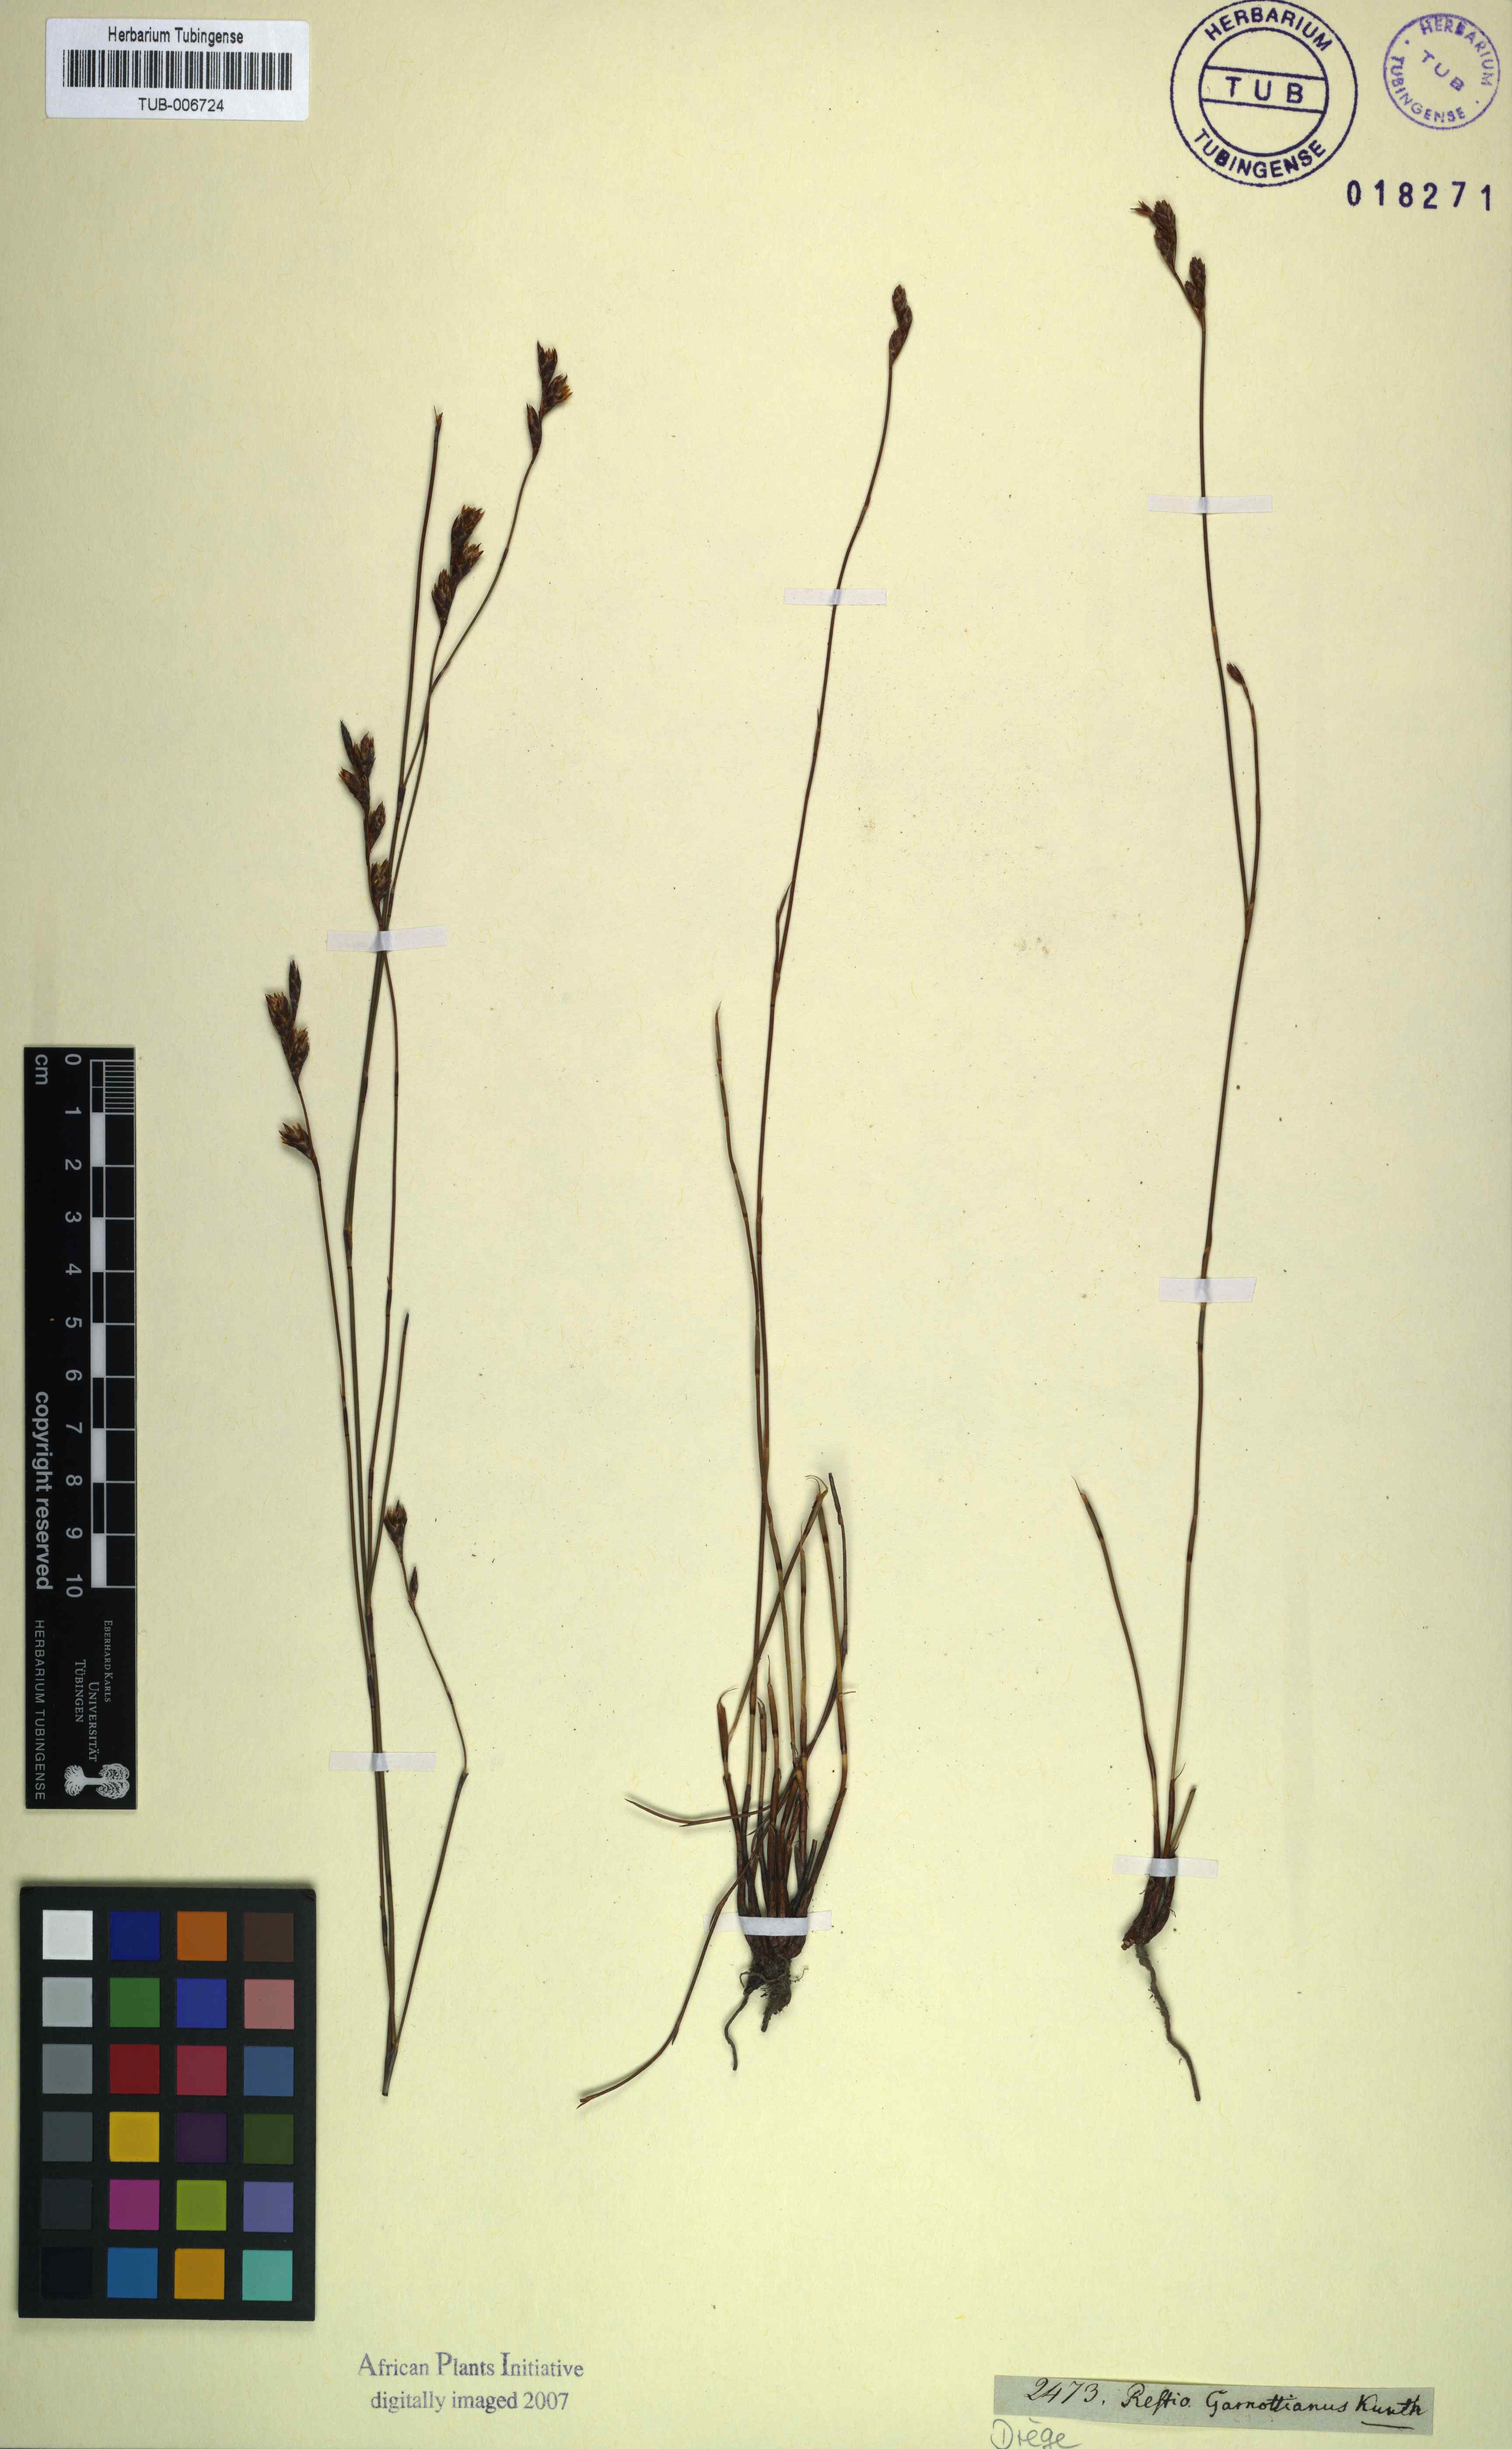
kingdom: Plantae
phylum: Tracheophyta
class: Liliopsida
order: Poales
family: Restionaceae
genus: Restio
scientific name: Restio filiformis
